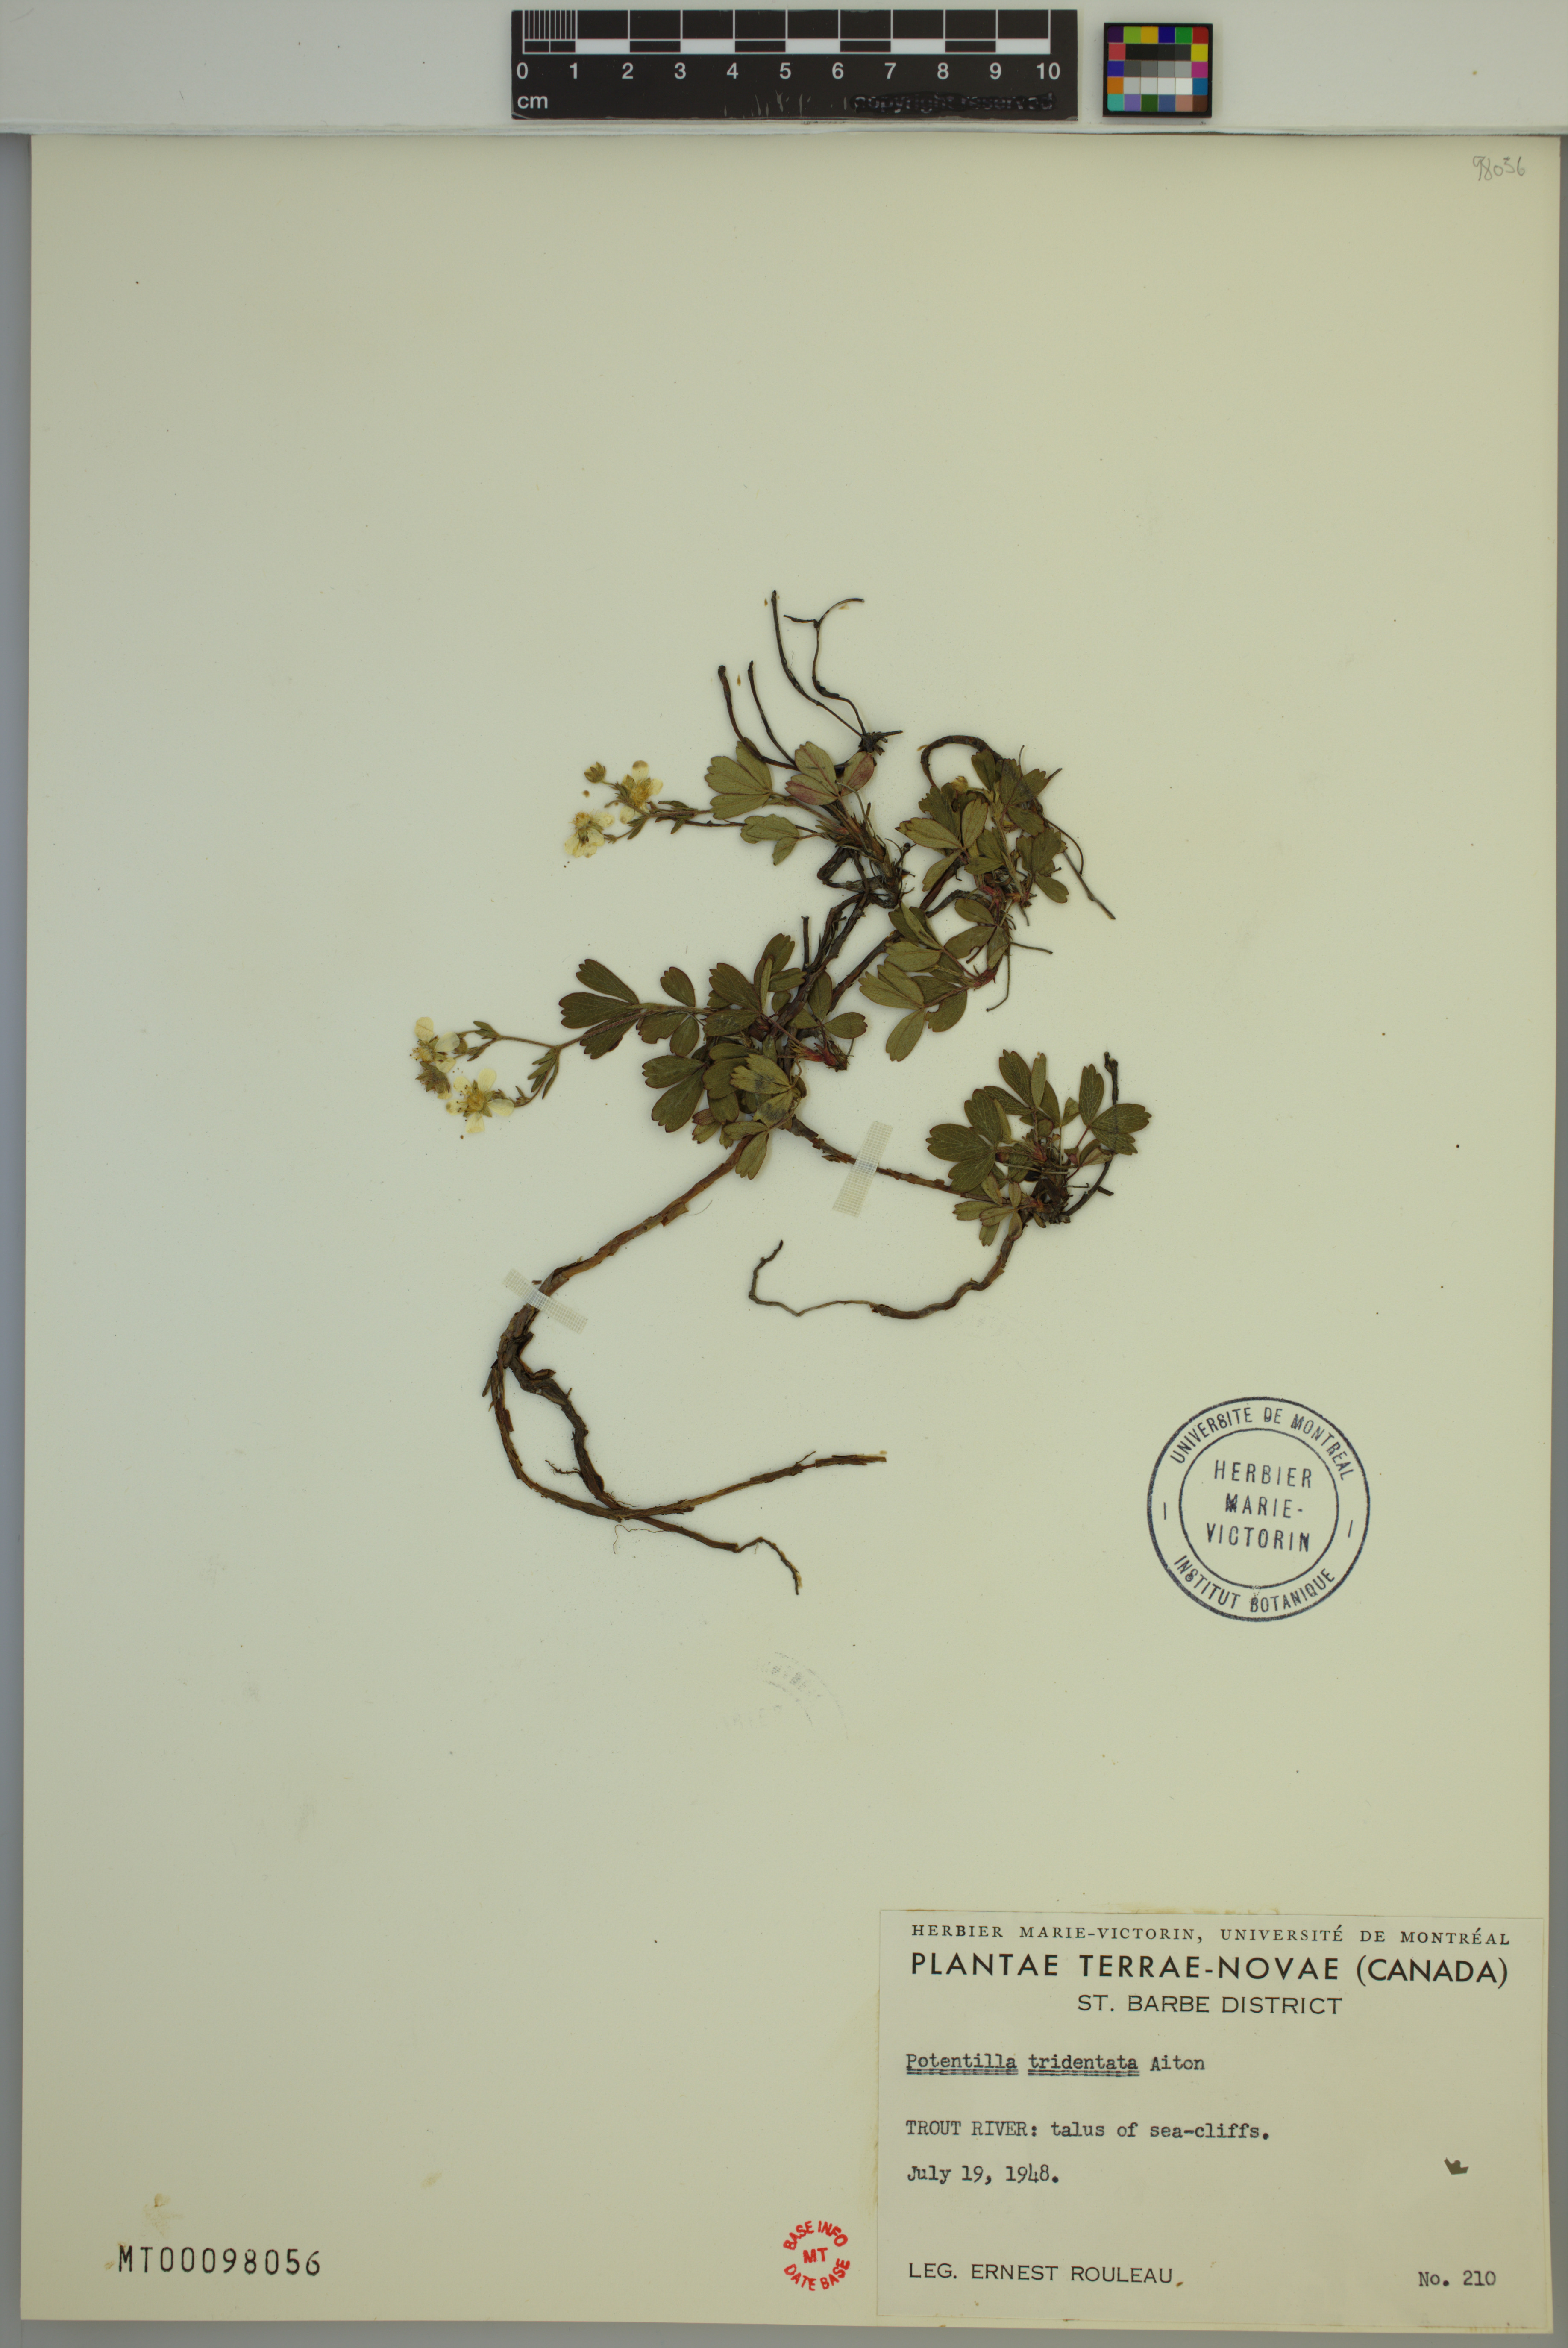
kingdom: Plantae
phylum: Tracheophyta
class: Magnoliopsida
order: Rosales
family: Rosaceae
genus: Sibbaldia
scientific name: Sibbaldia tridentata
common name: Three-toothed cinquefoil
